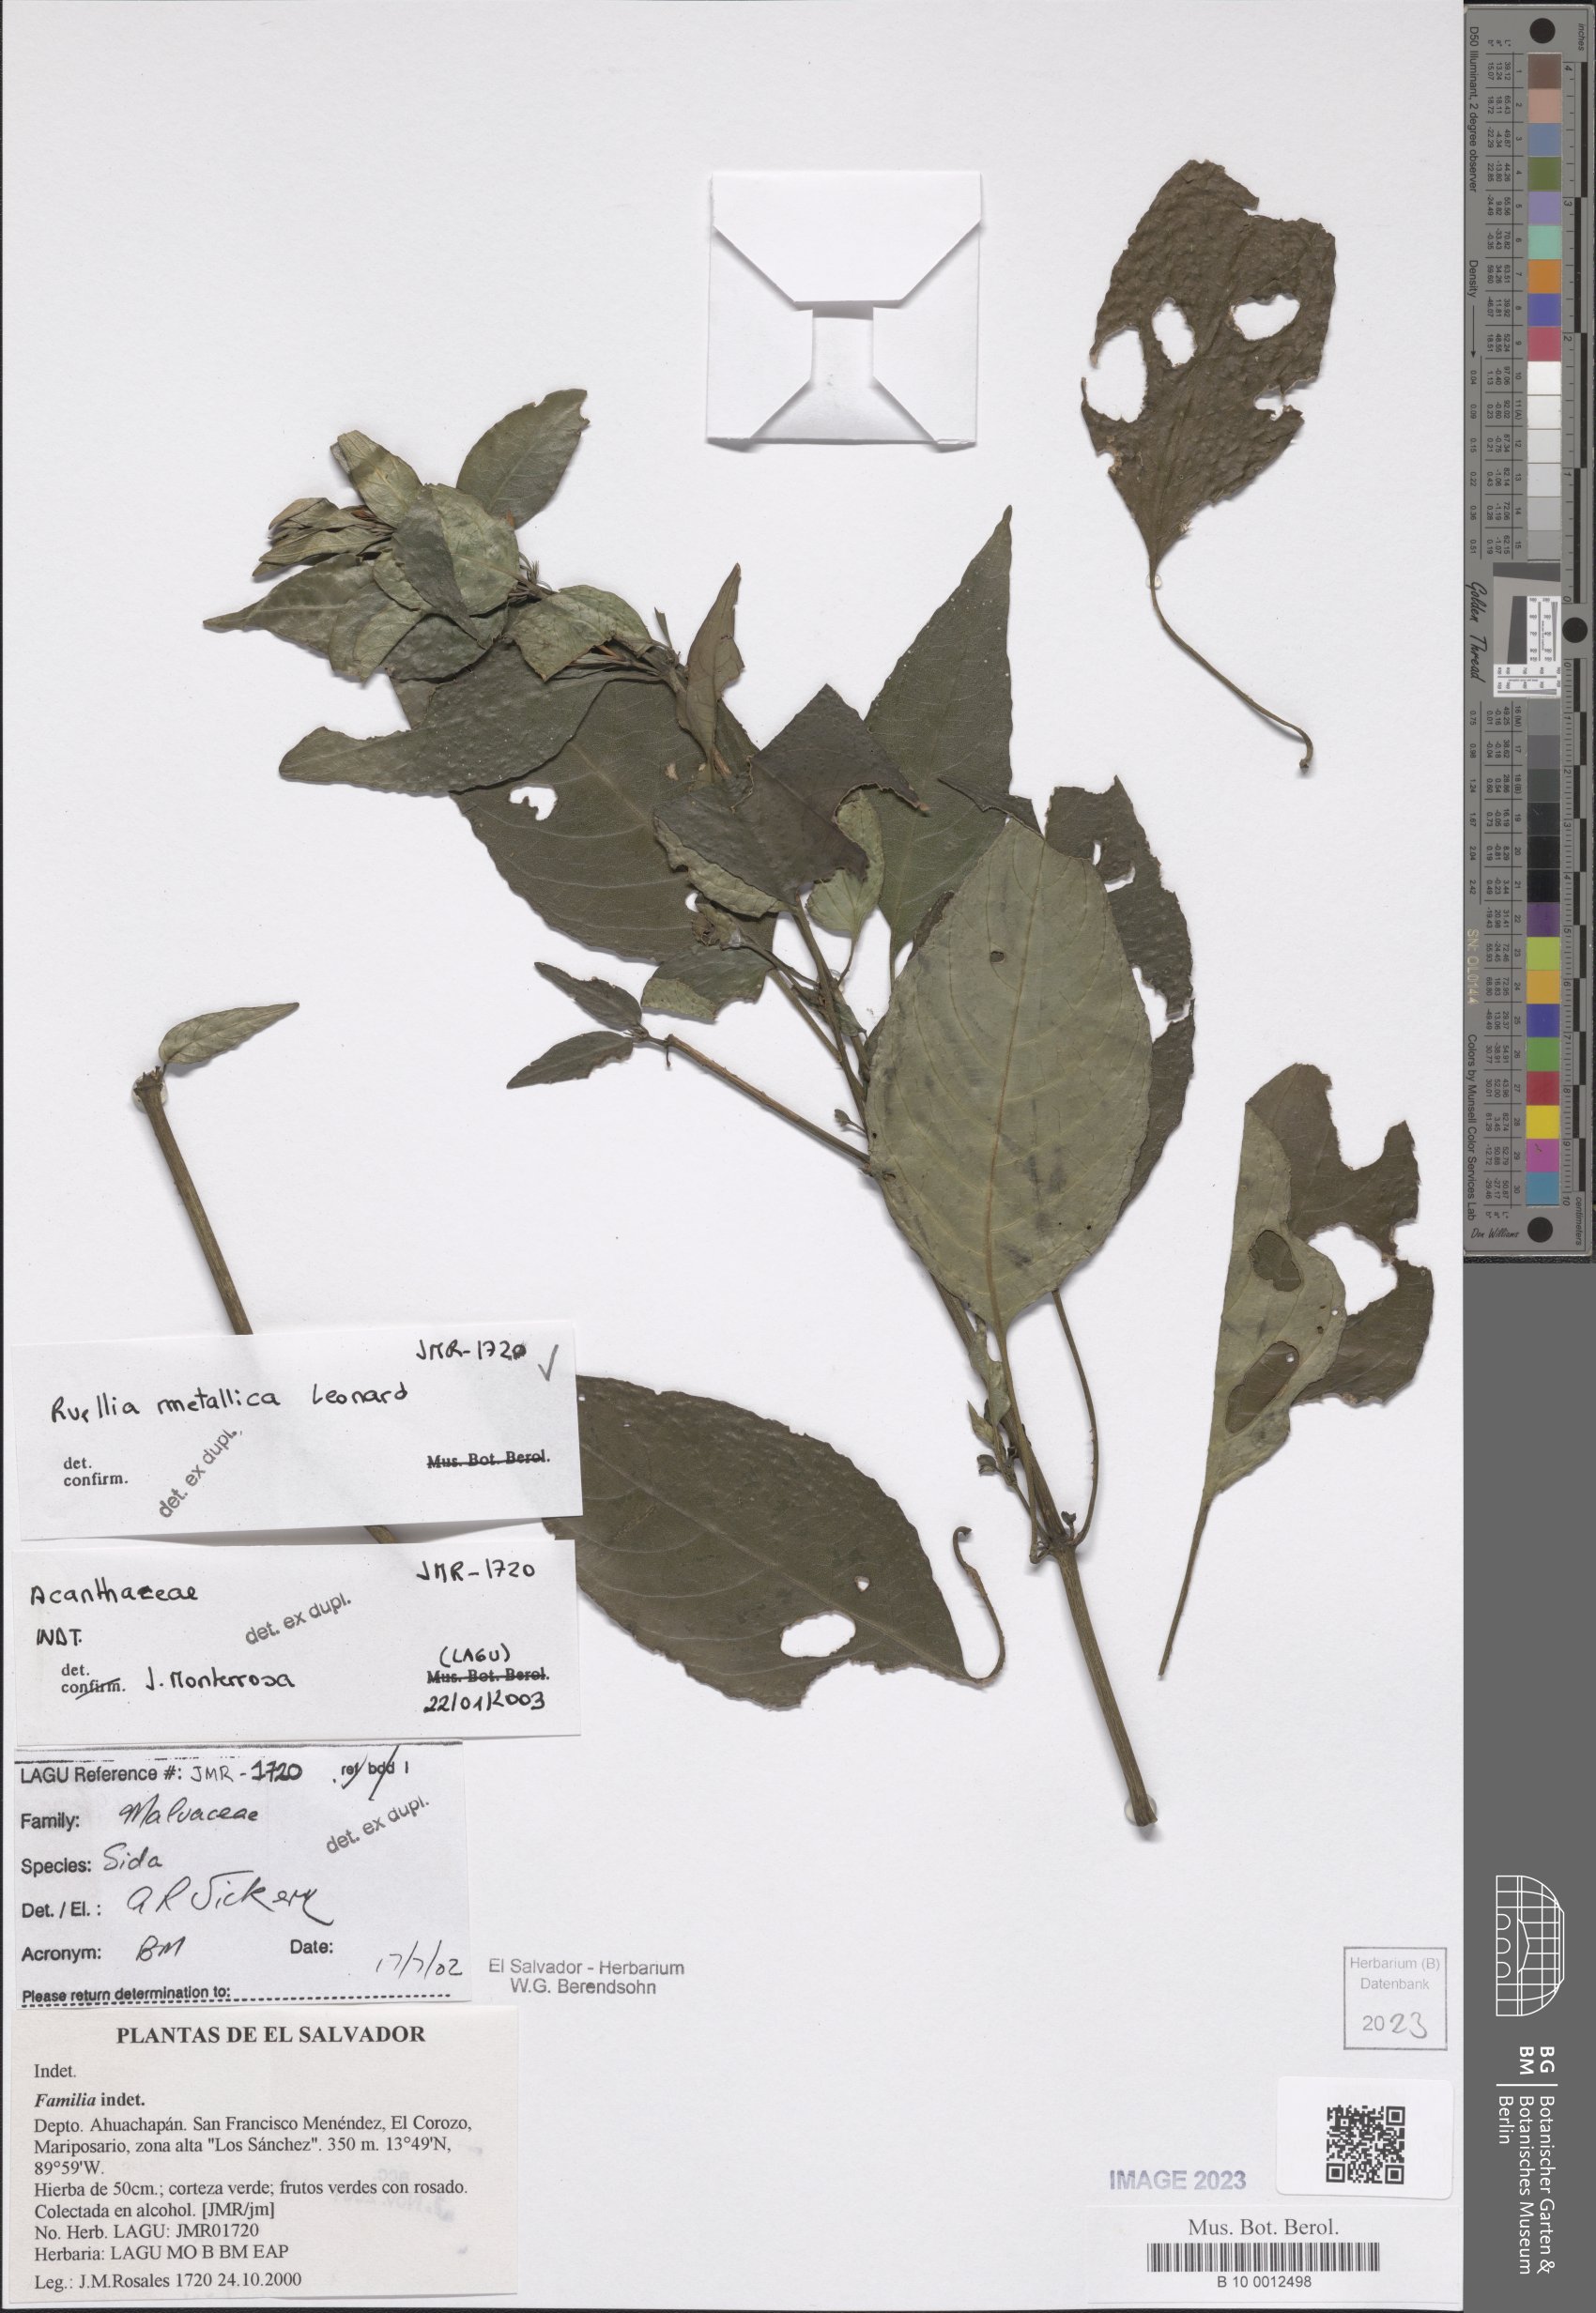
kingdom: Plantae
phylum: Tracheophyta
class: Magnoliopsida
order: Lamiales
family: Acanthaceae
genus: Ruellia
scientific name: Ruellia metallica
